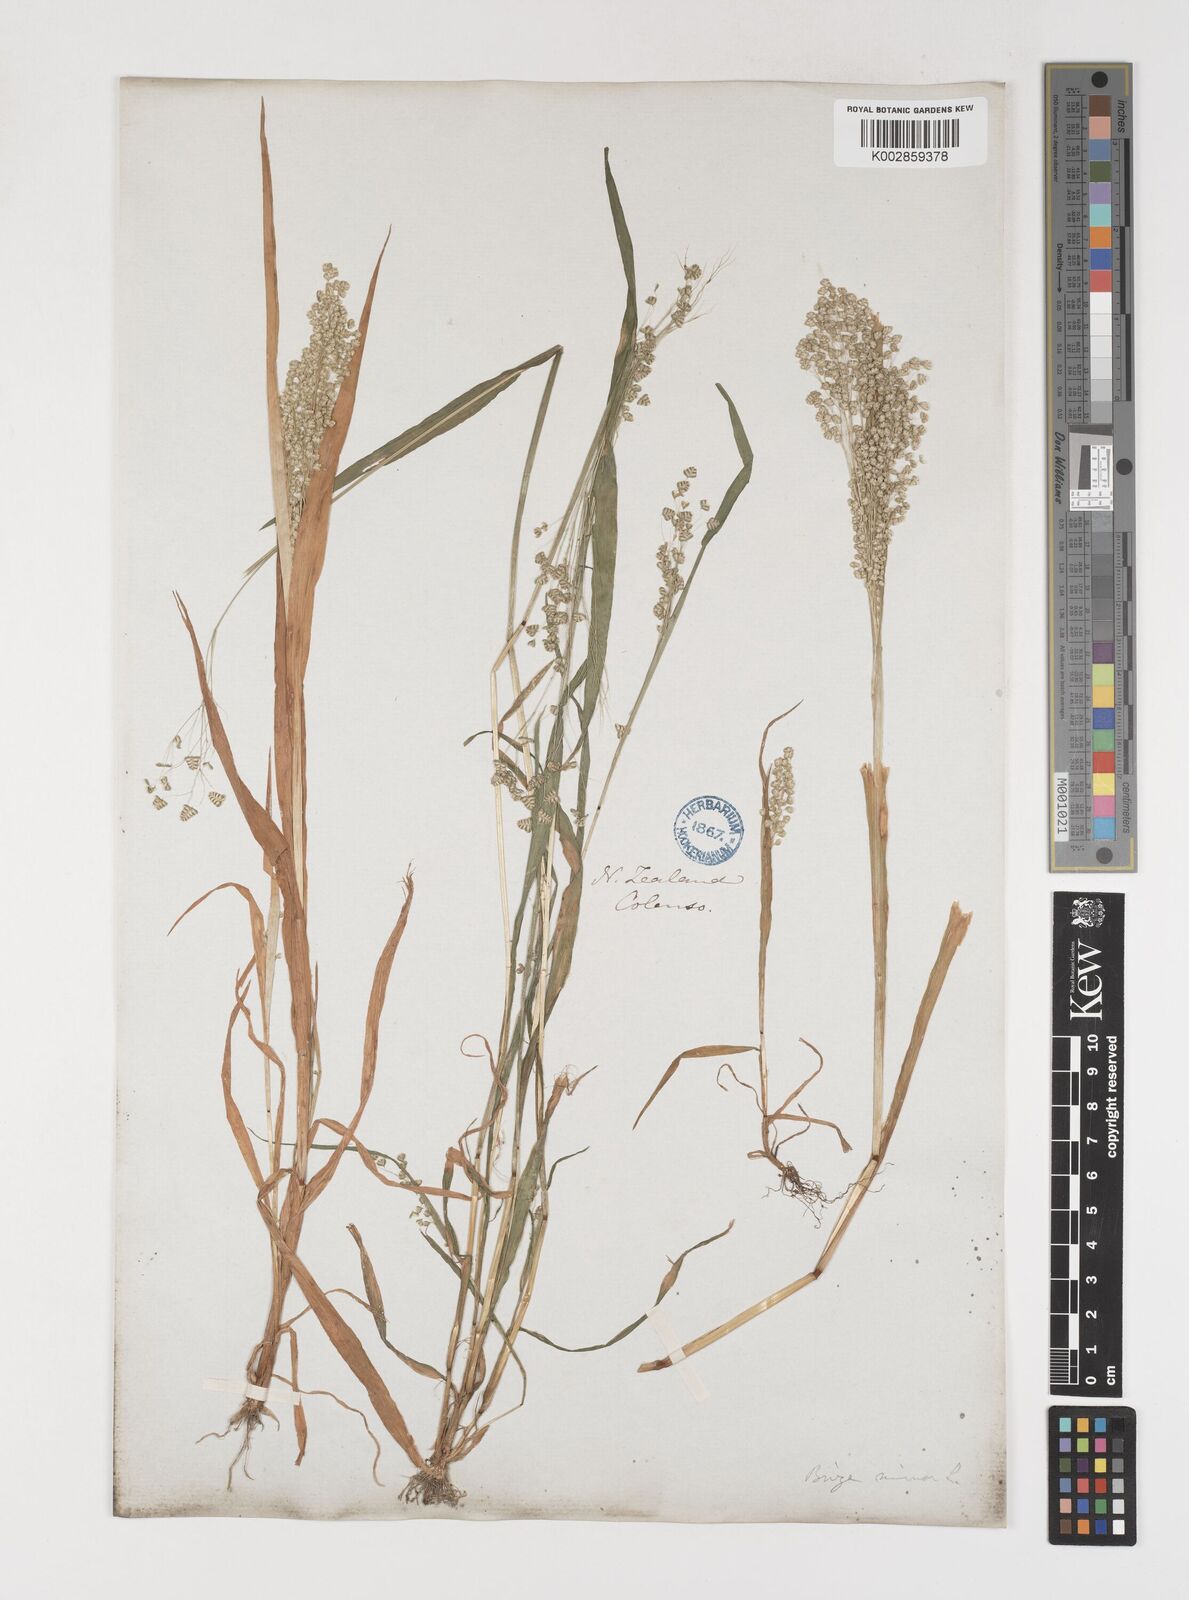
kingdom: Plantae
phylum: Tracheophyta
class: Liliopsida
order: Poales
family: Poaceae
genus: Briza
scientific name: Briza minor
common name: Lesser quaking-grass
